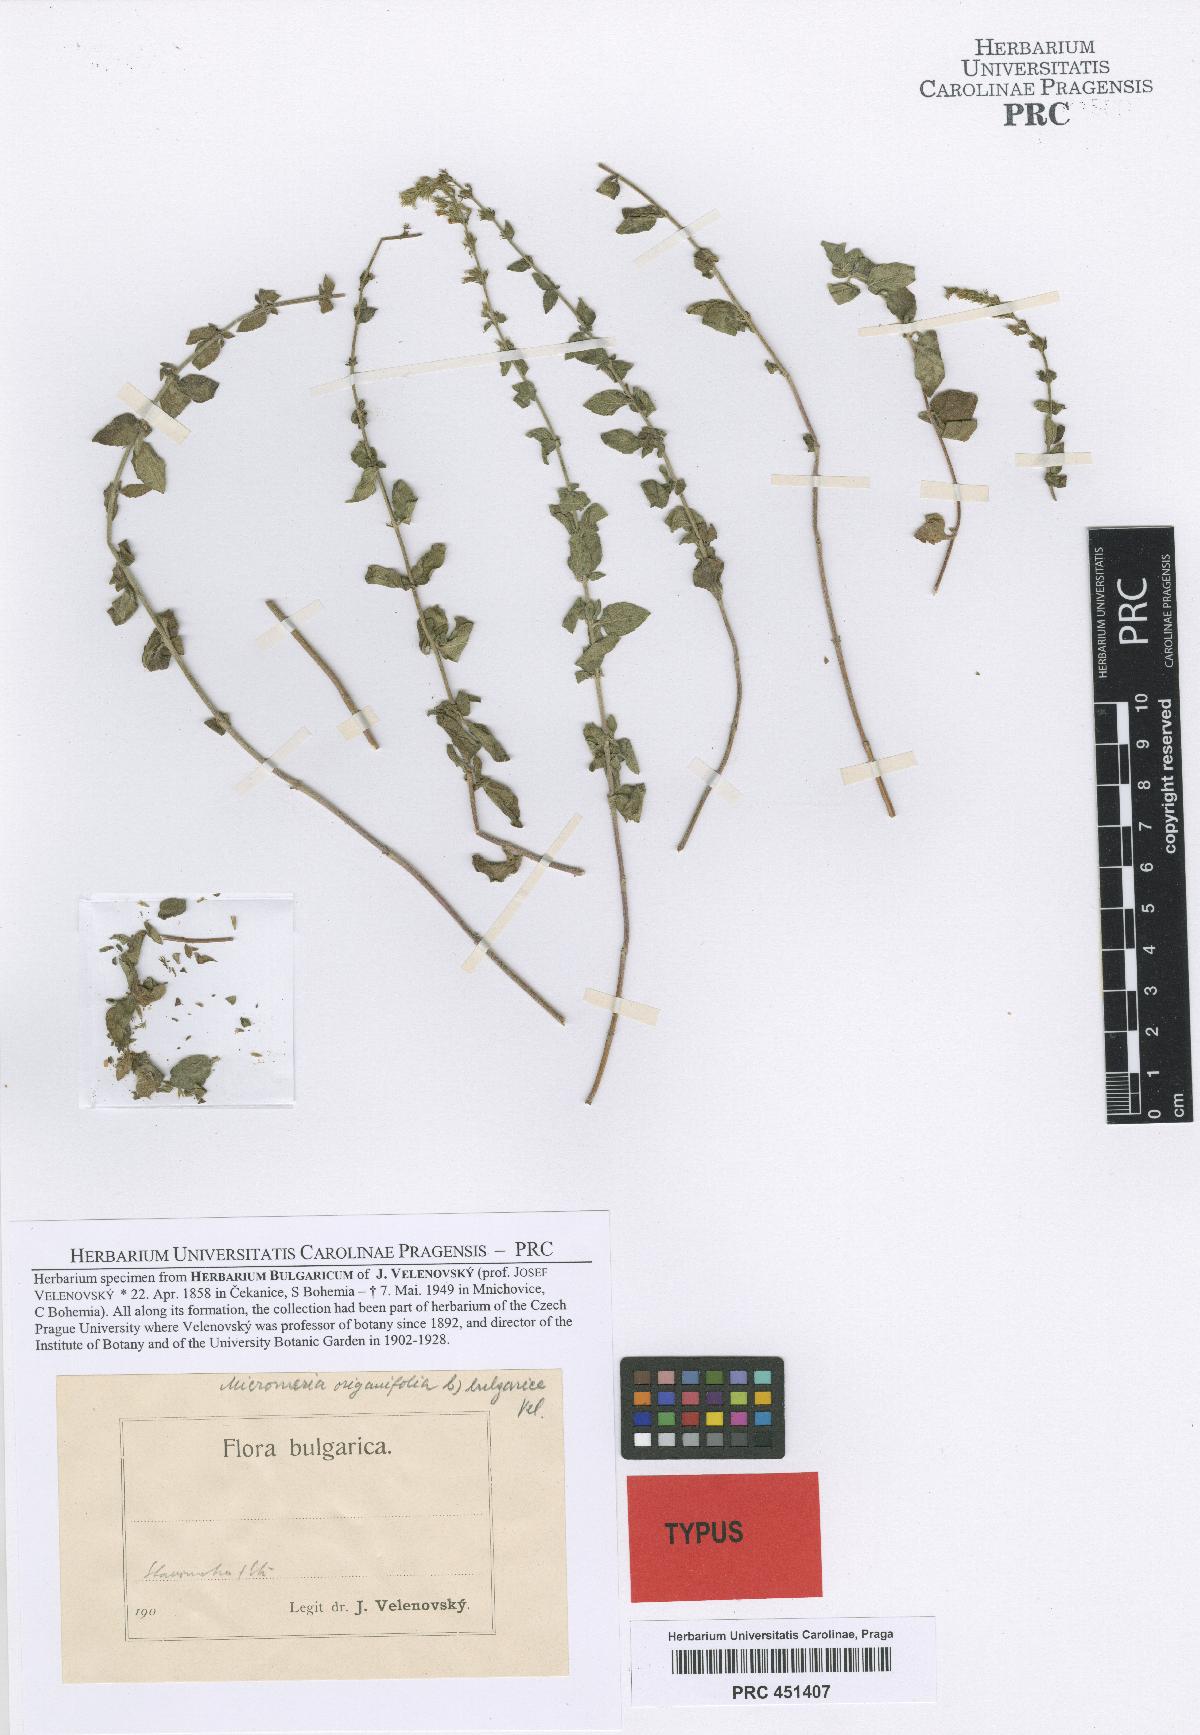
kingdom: Plantae
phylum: Tracheophyta
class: Magnoliopsida
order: Lamiales
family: Lamiaceae
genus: Clinopodium
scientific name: Clinopodium dalmaticum
